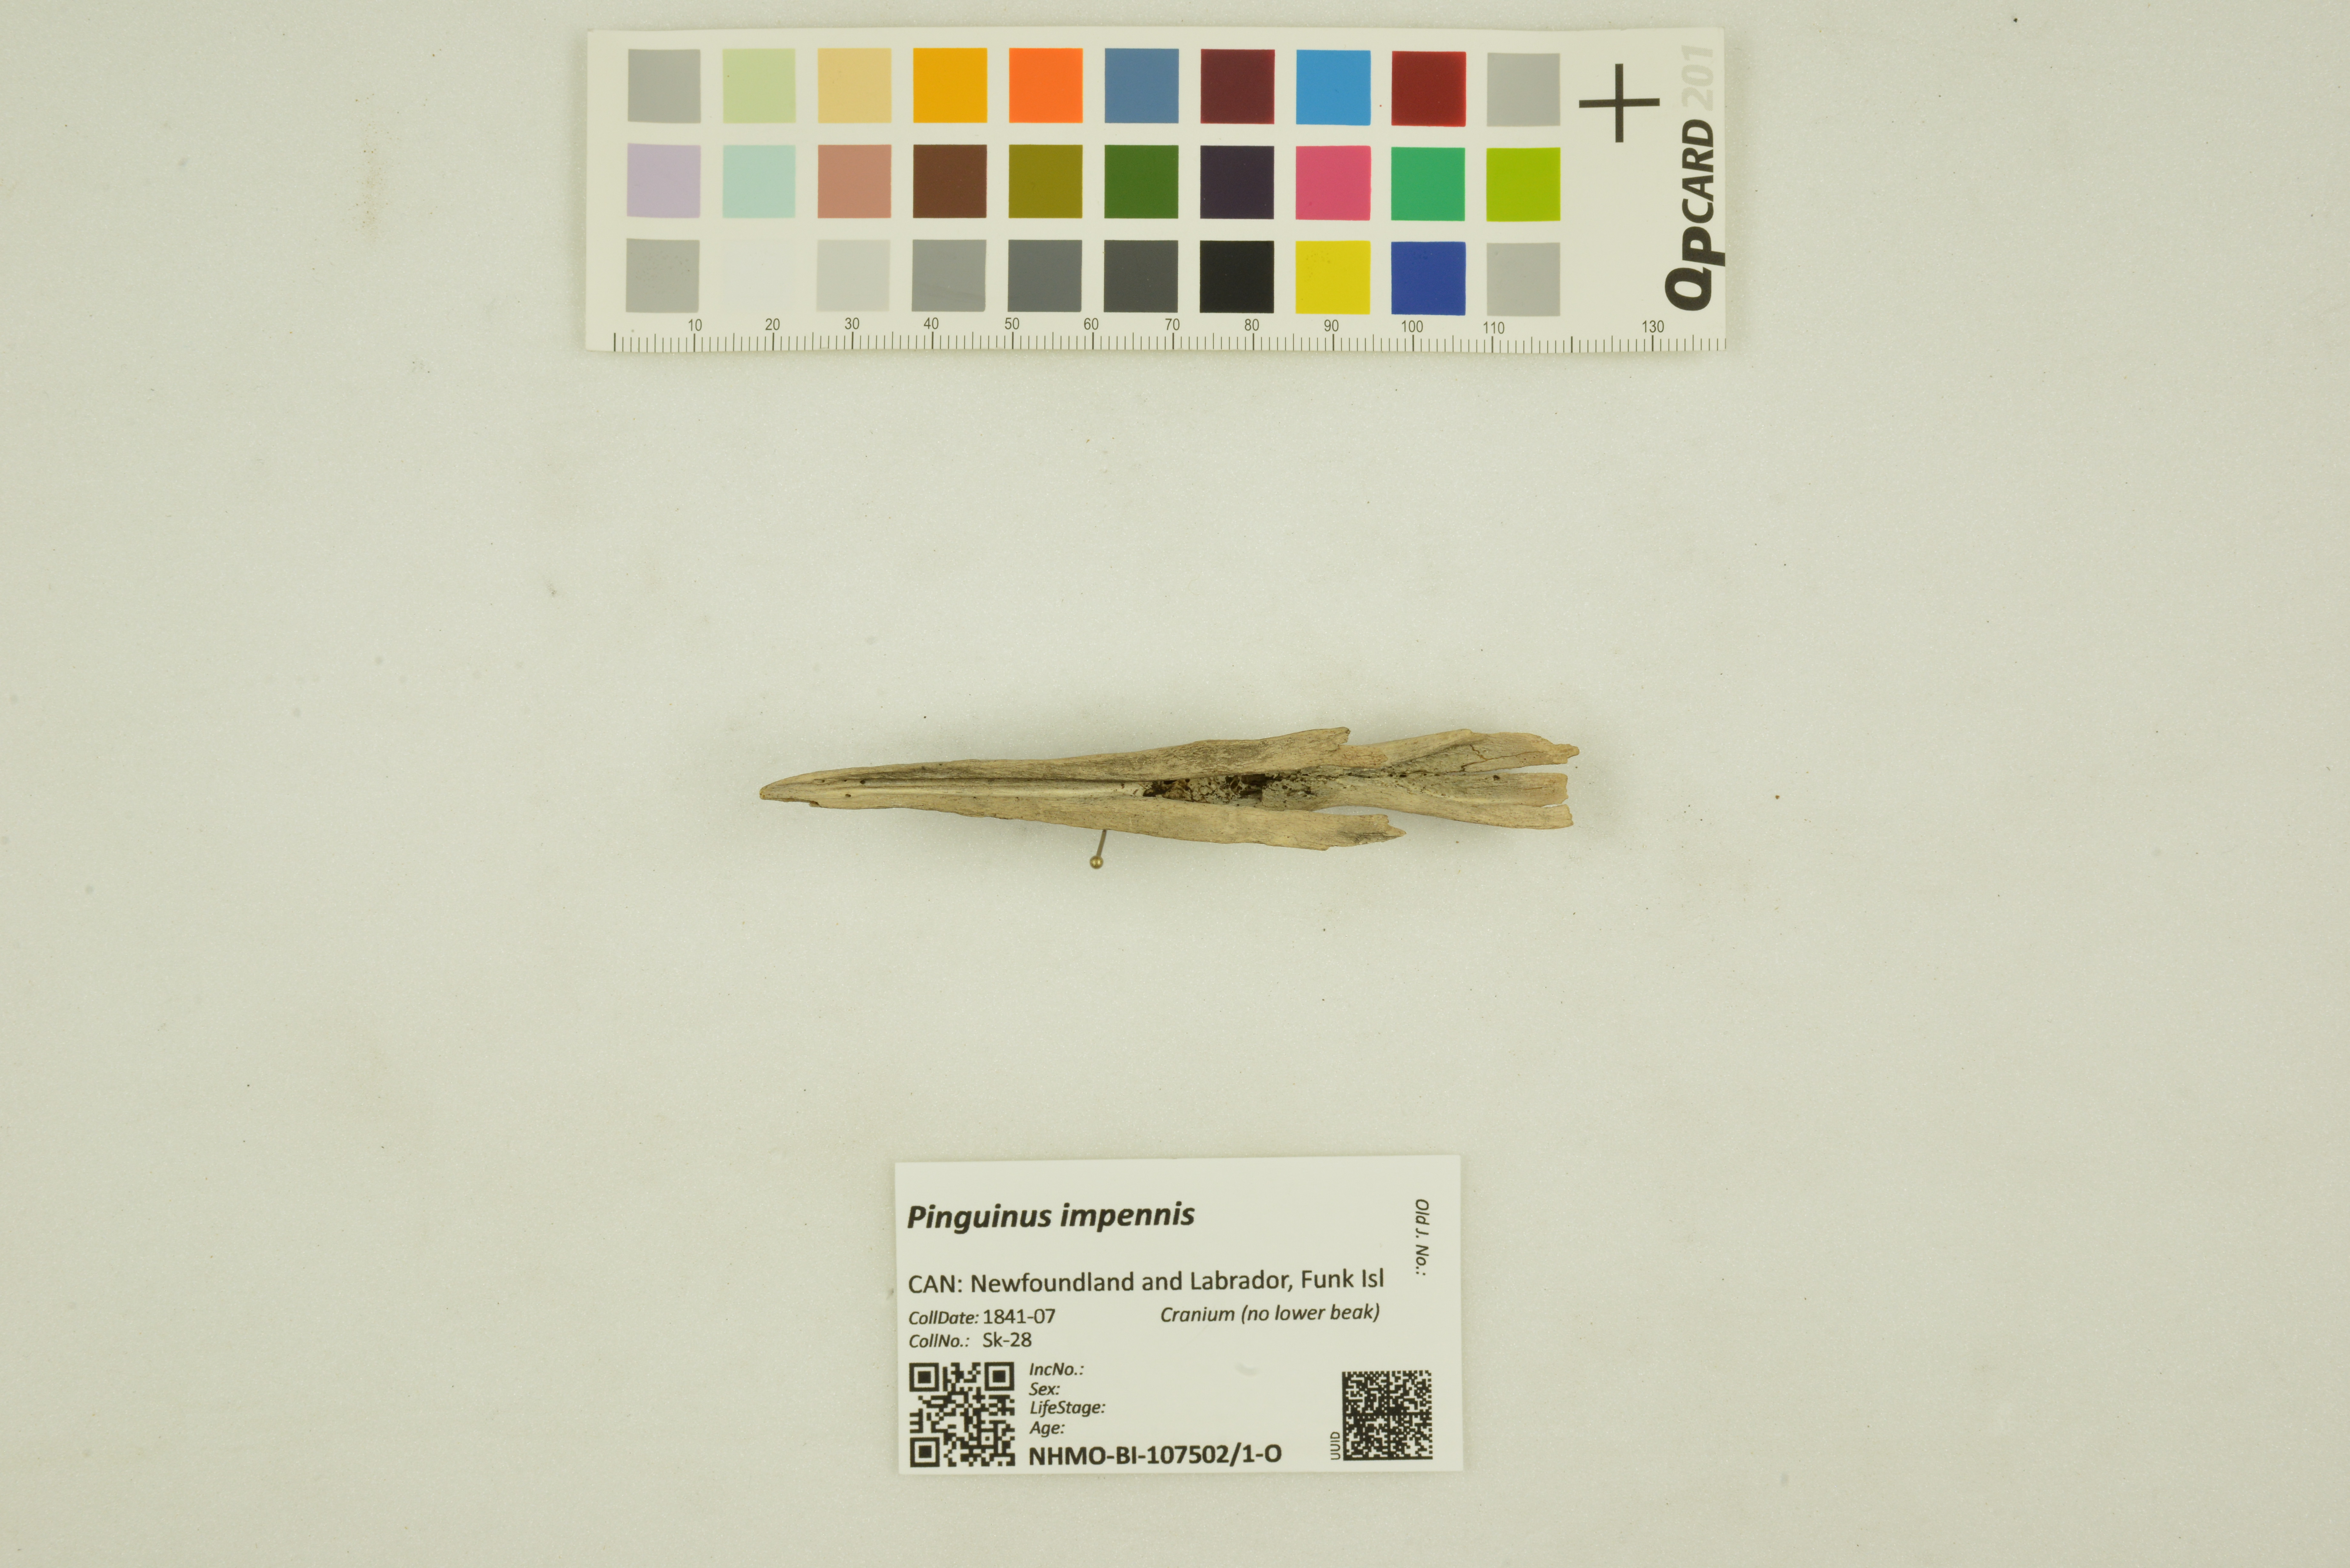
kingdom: Animalia
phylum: Chordata
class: Aves
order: Charadriiformes
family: Alcidae
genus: Pinguinus
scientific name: Pinguinus impennis
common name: Great auk
